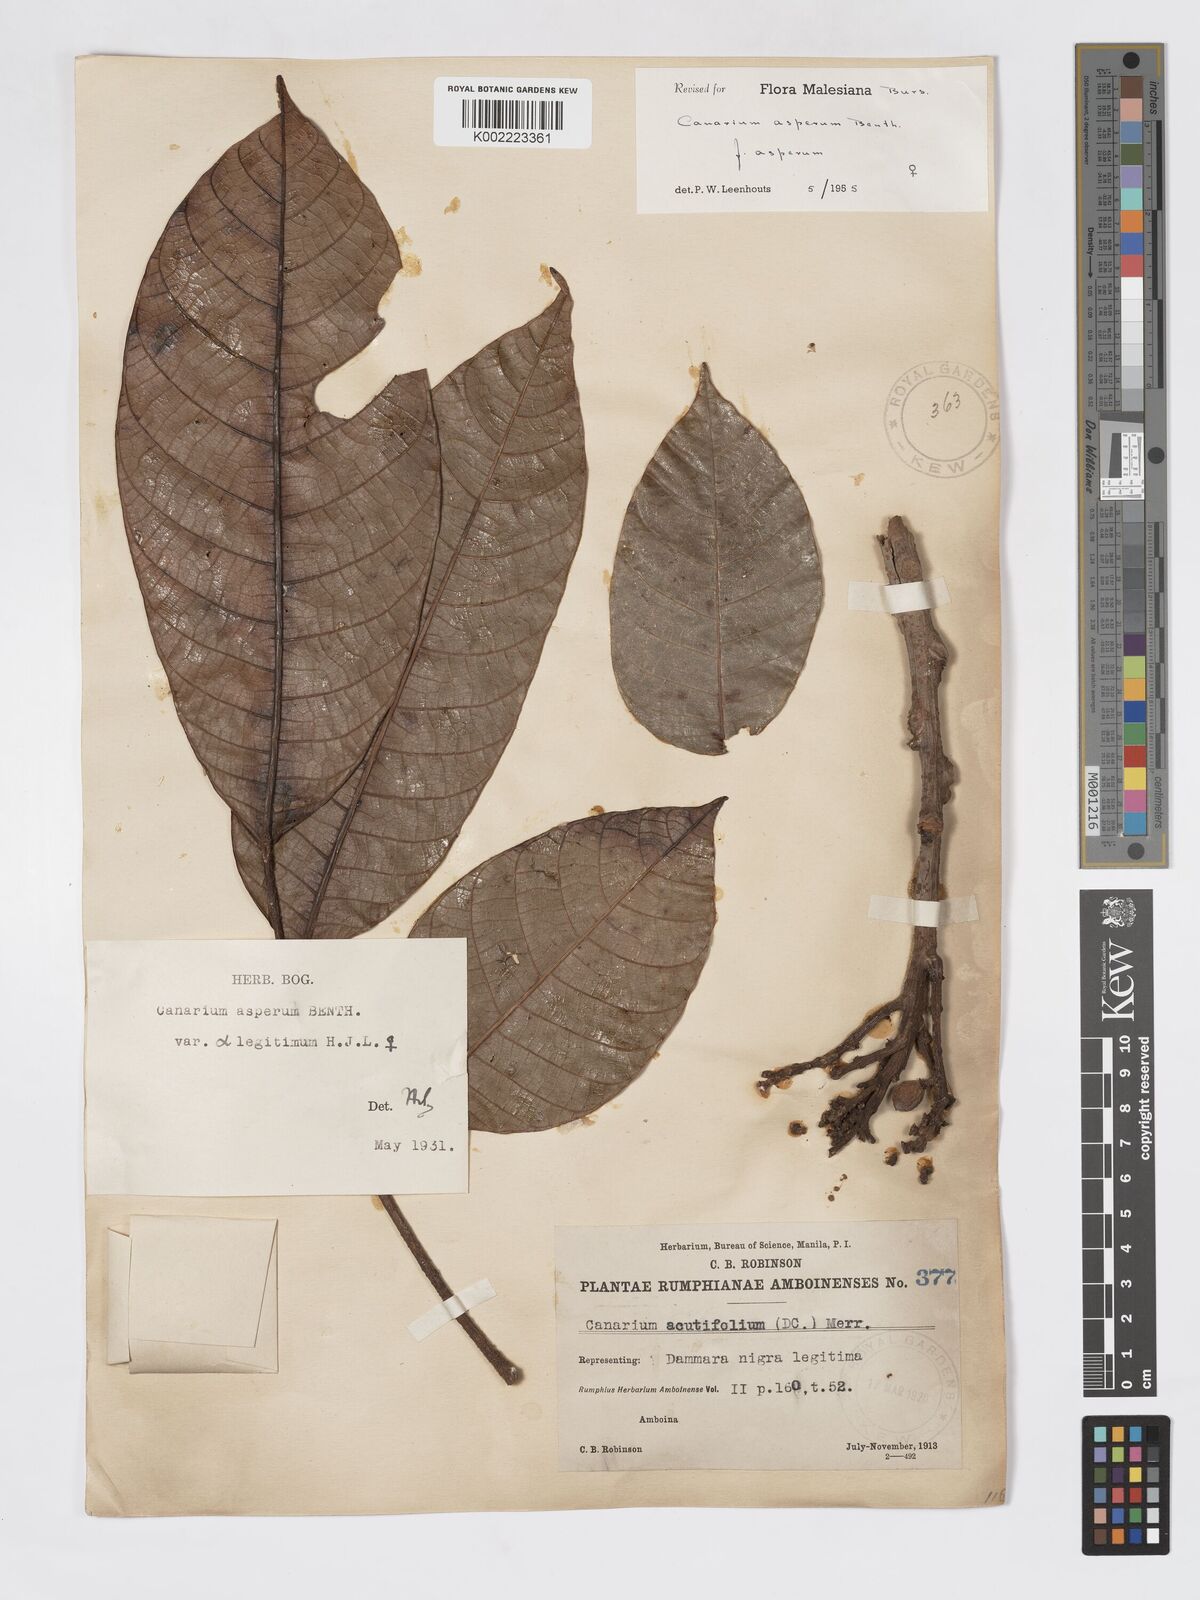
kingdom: Plantae
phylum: Tracheophyta
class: Magnoliopsida
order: Sapindales
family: Burseraceae
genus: Canarium
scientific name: Canarium asperum
